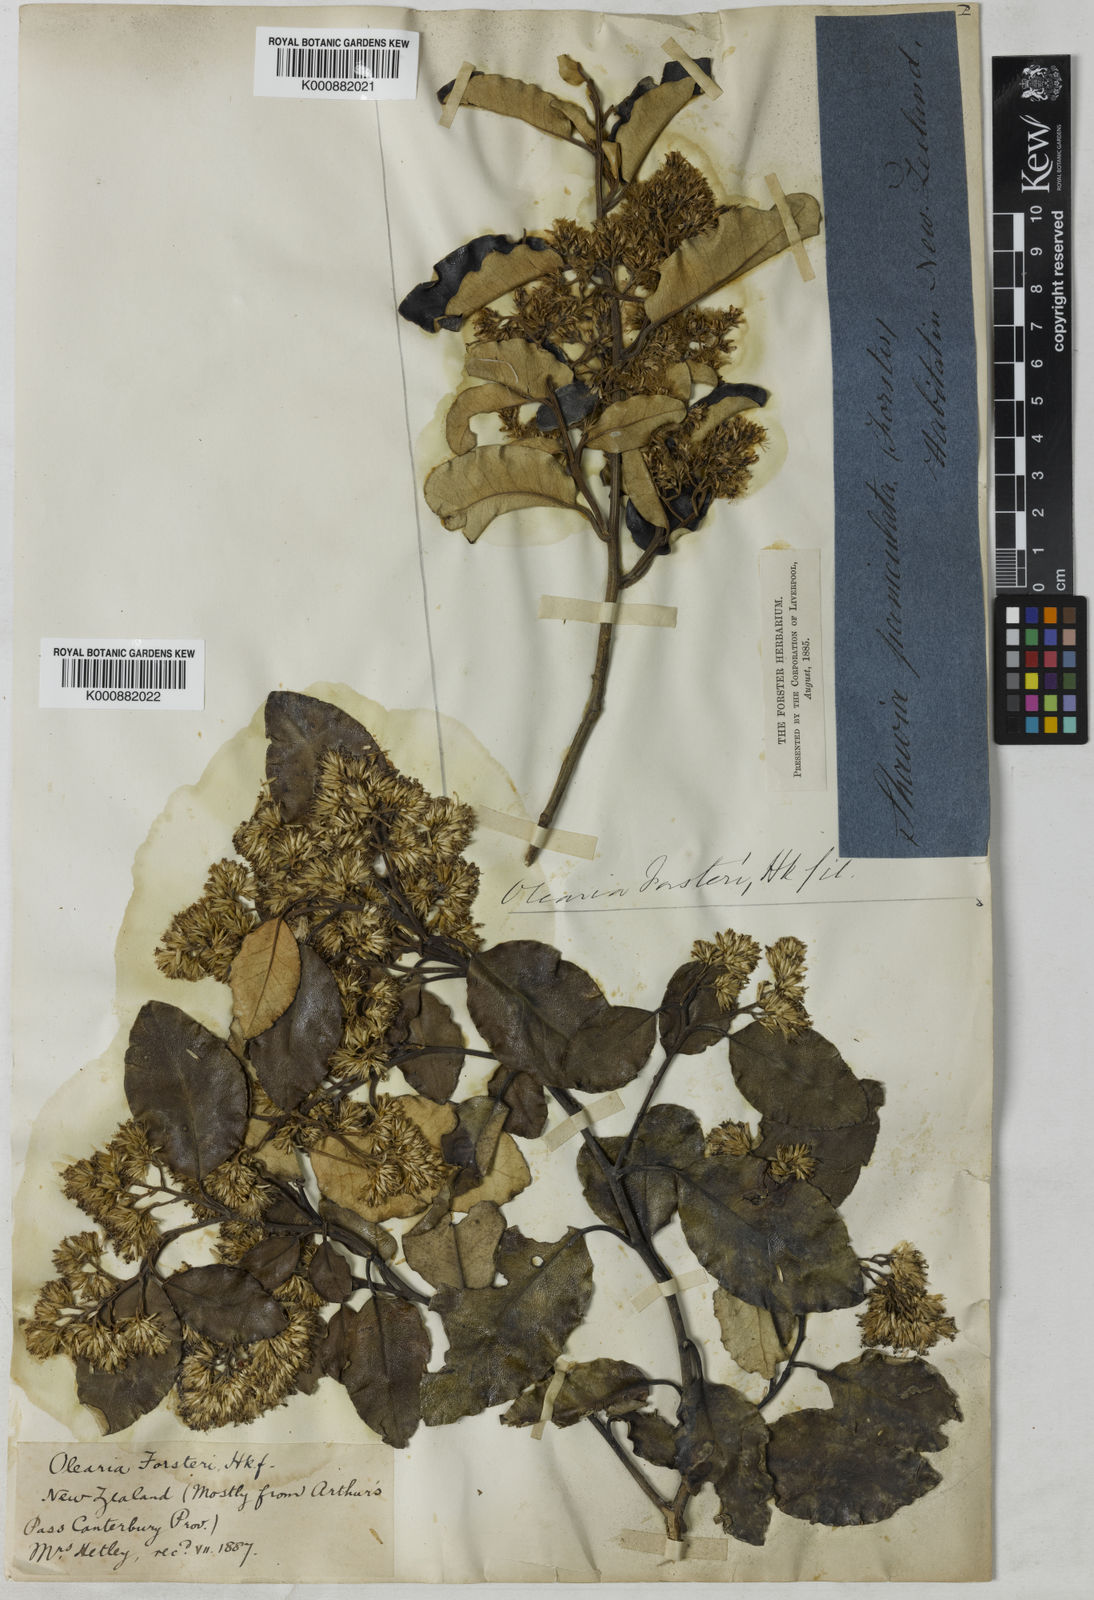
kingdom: Plantae
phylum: Tracheophyta
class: Magnoliopsida
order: Asterales
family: Asteraceae
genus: Olearia
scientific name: Olearia paniculata
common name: Akiraho
